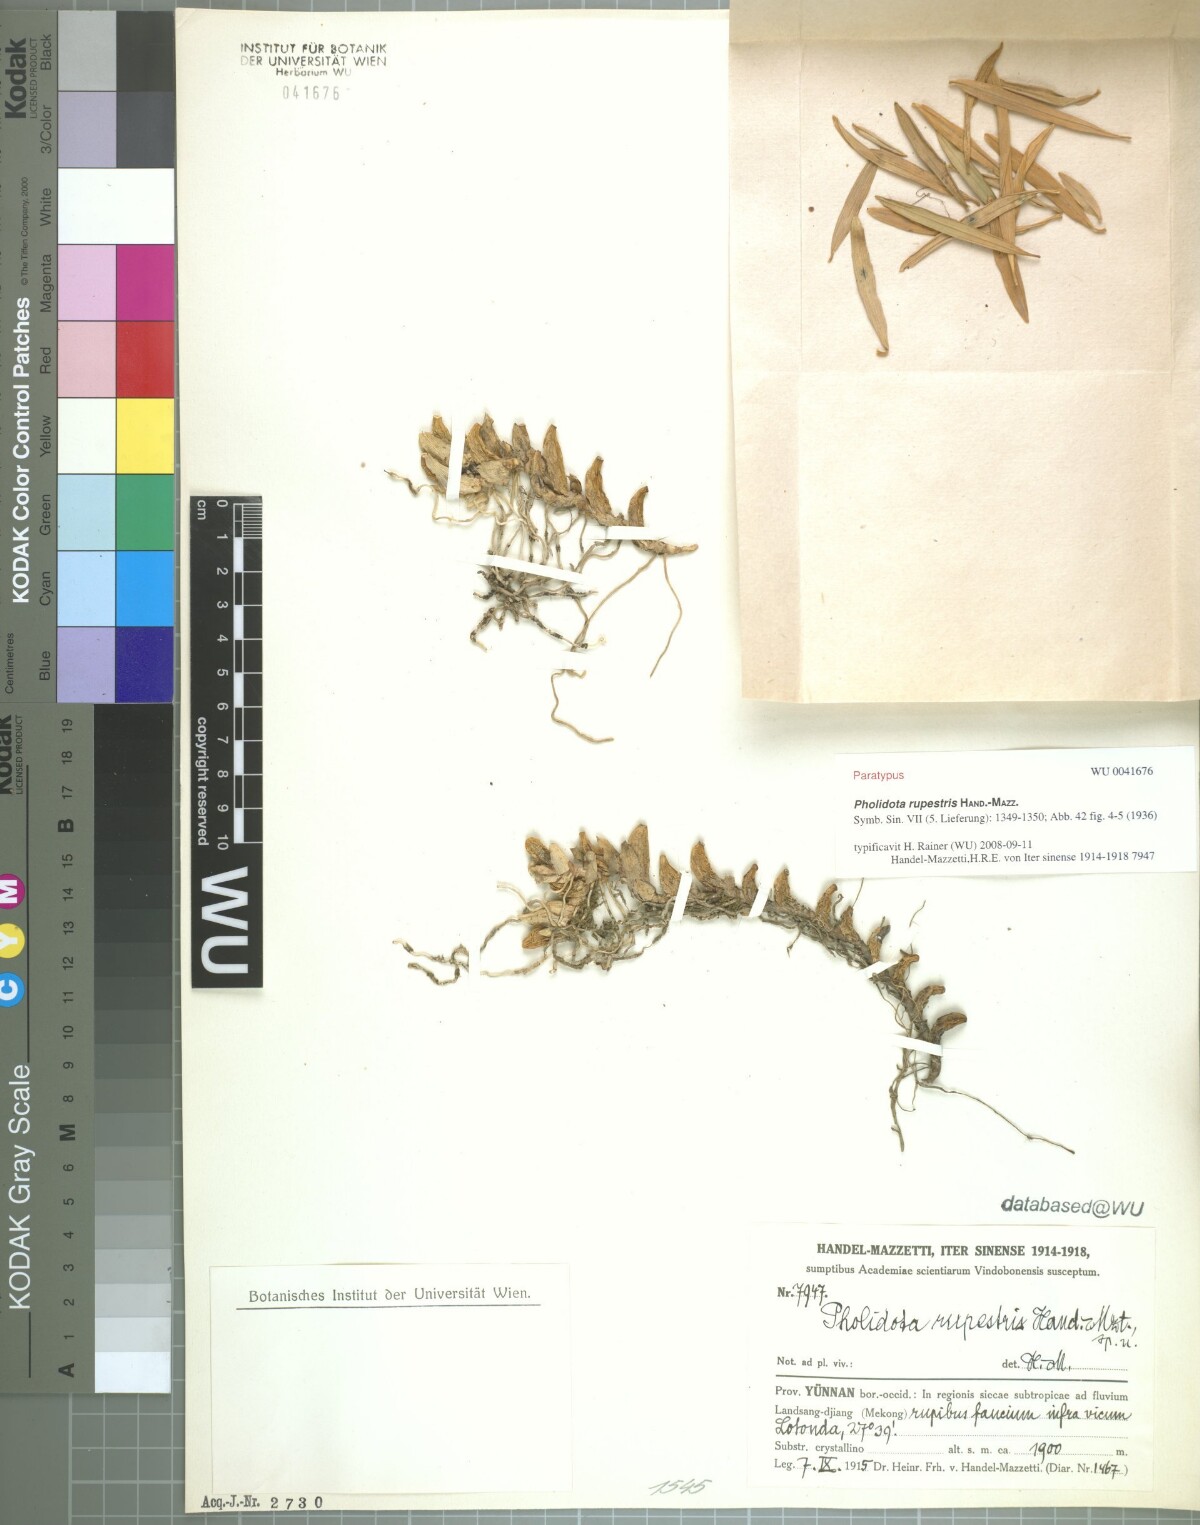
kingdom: Plantae
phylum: Tracheophyta
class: Liliopsida
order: Asparagales
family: Orchidaceae
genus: Coelogyne
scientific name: Coelogyne missionariorum
